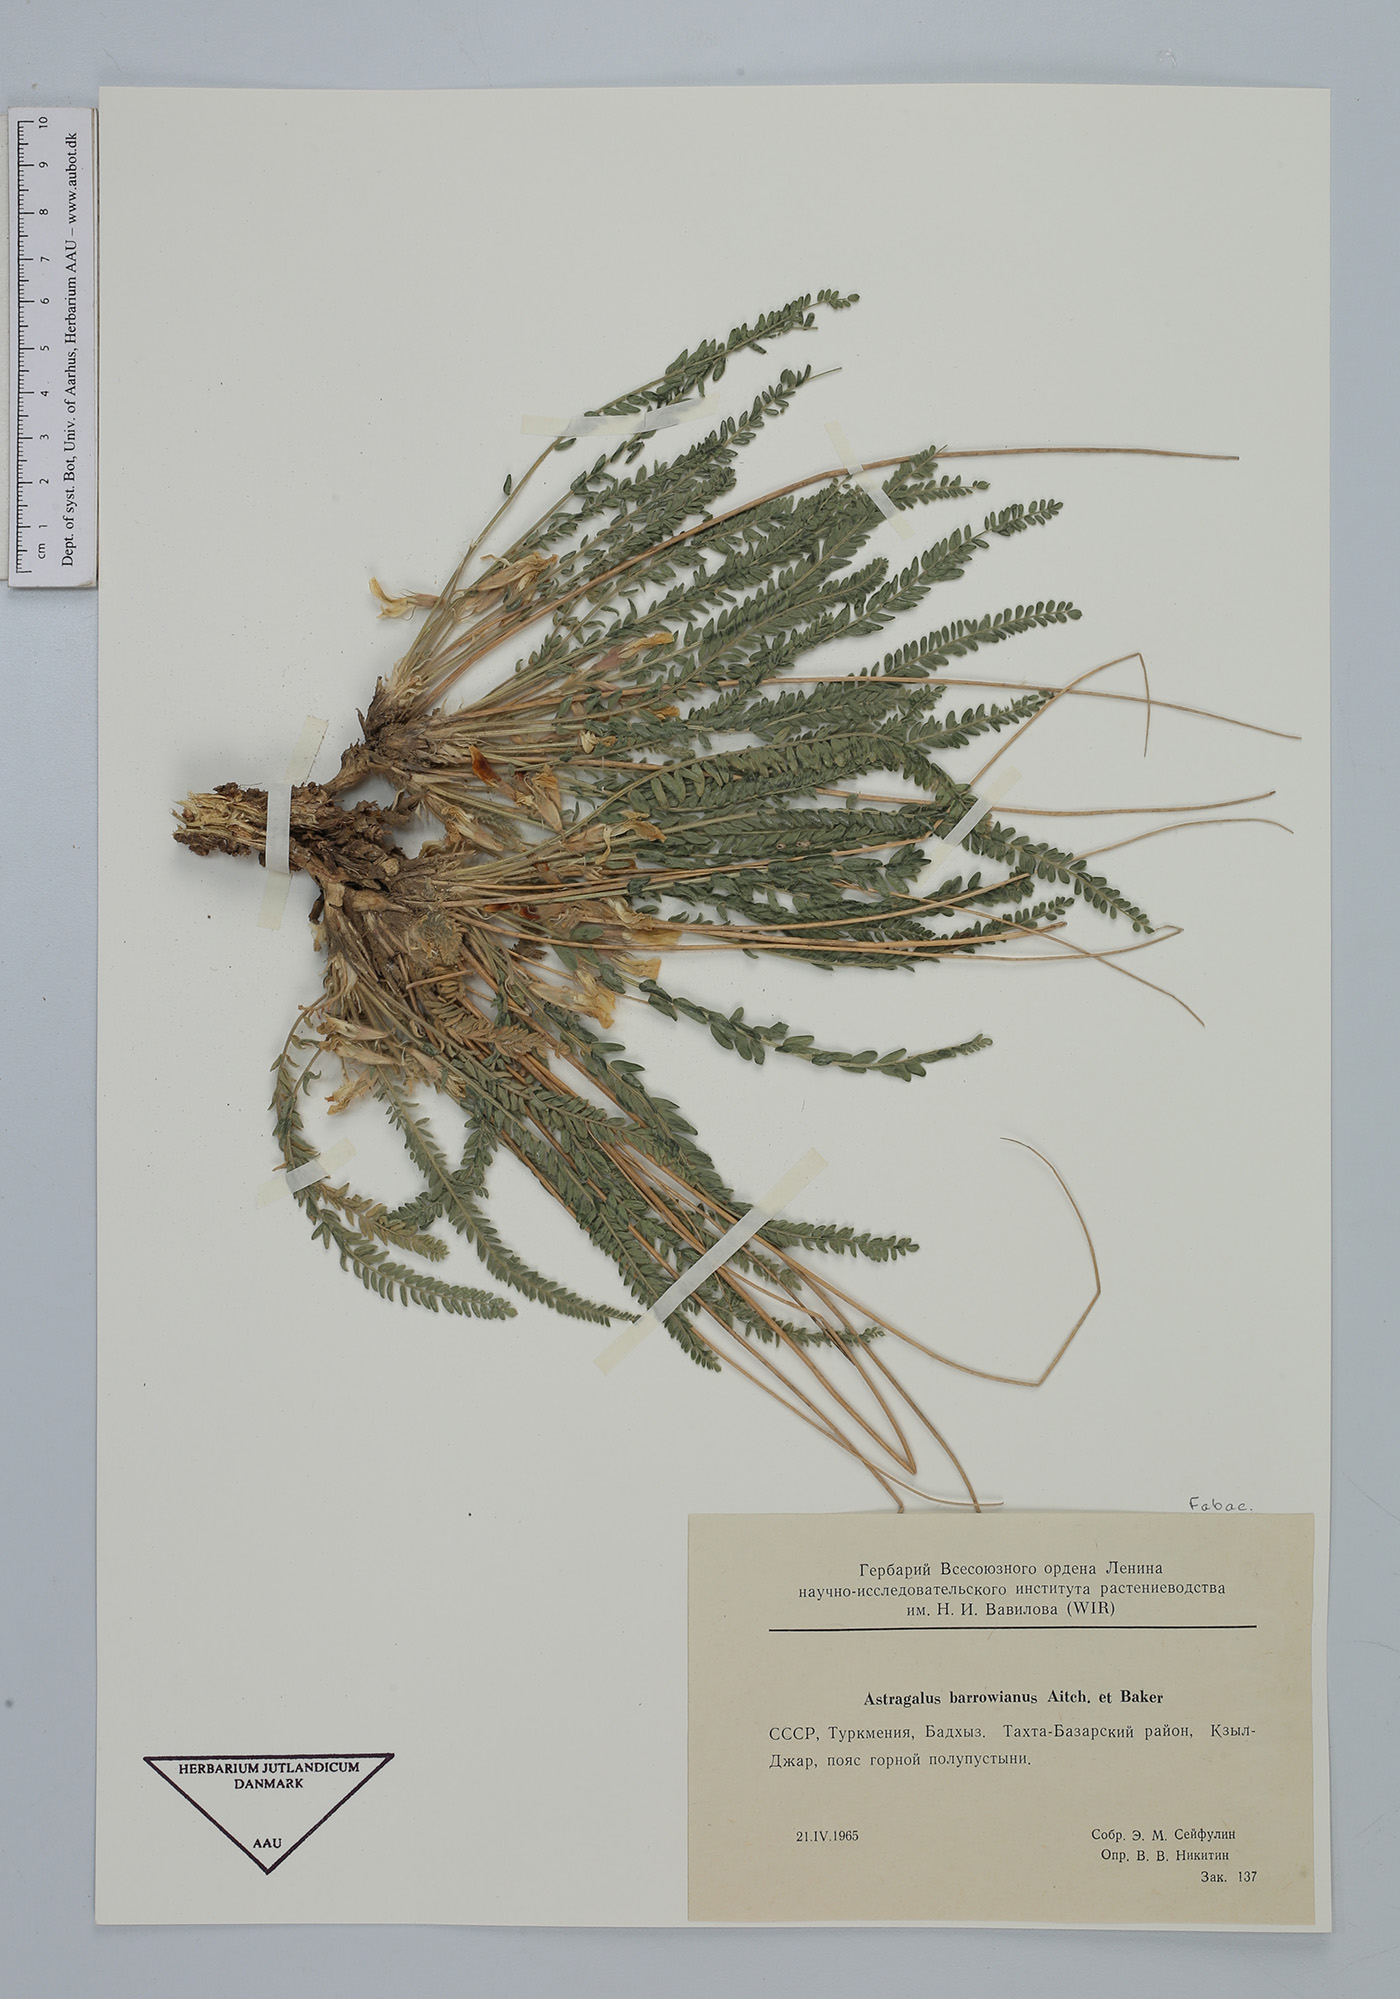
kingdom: Plantae
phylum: Tracheophyta
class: Magnoliopsida
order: Fabales
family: Fabaceae
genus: Astragalus
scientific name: Astragalus citrinus
